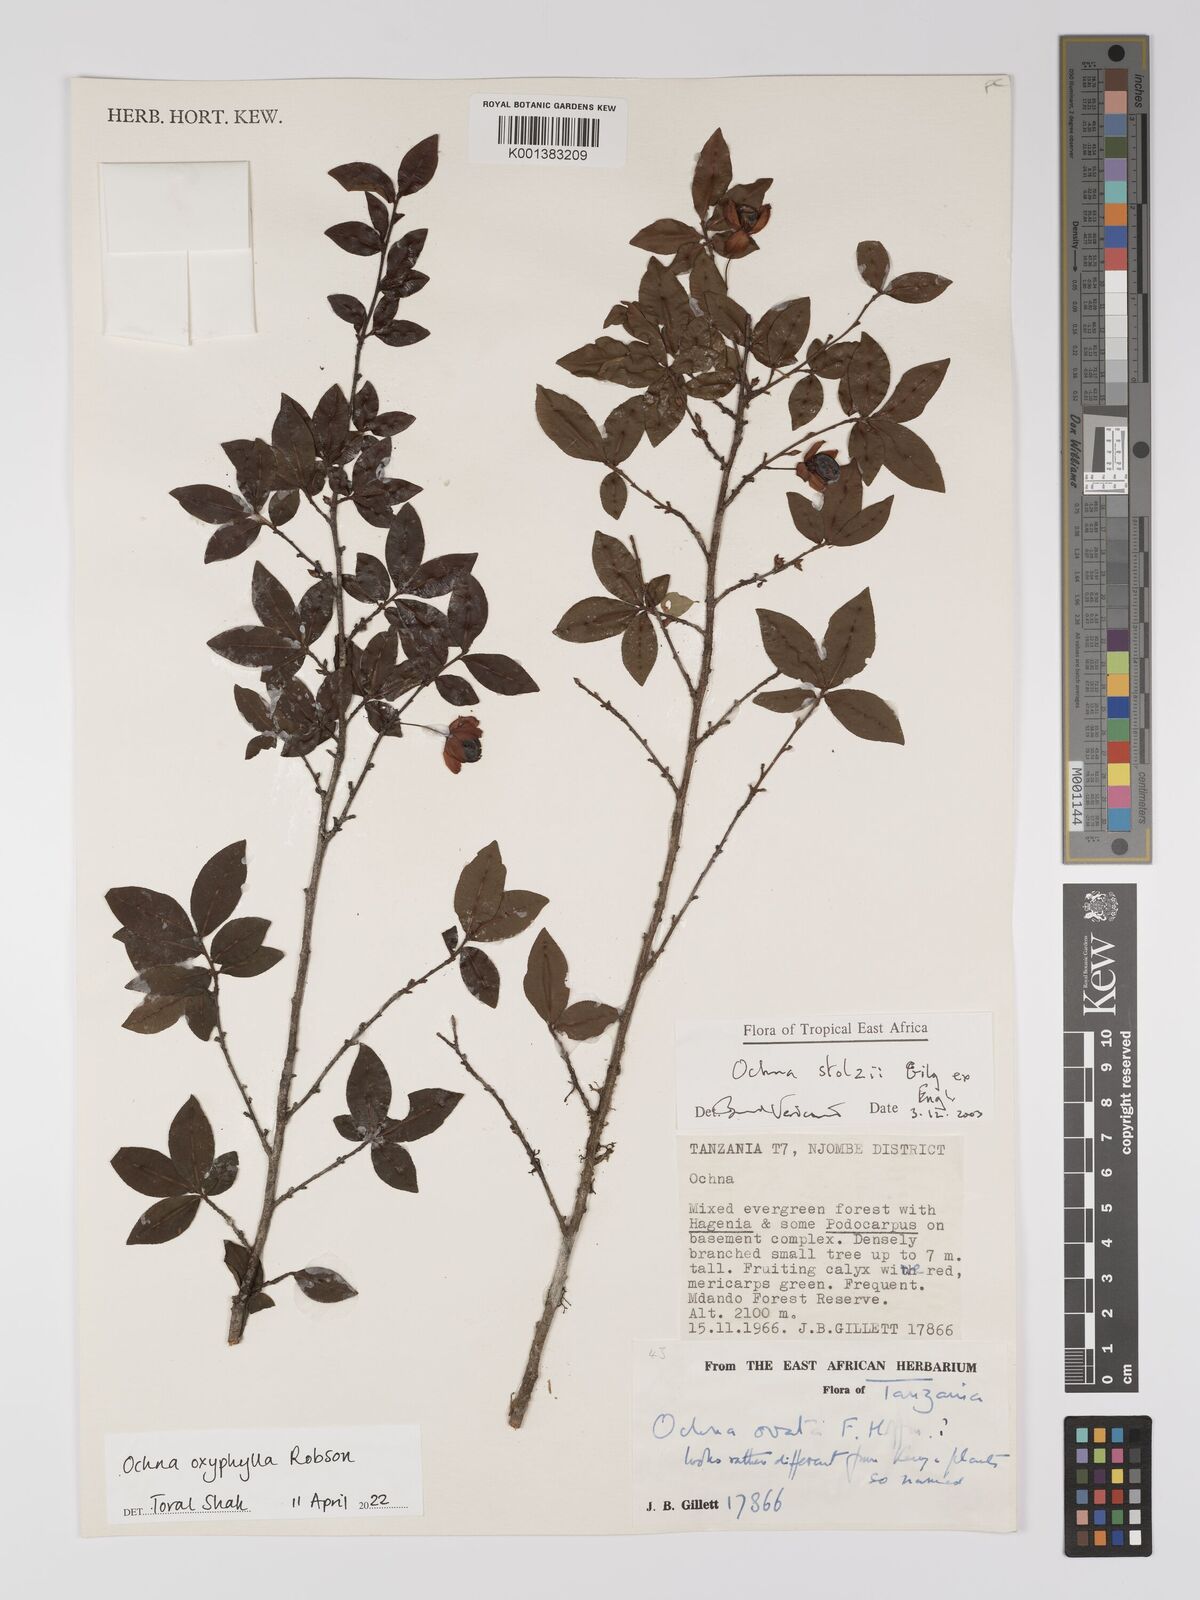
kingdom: Plantae
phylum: Tracheophyta
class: Magnoliopsida
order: Malpighiales
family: Ochnaceae
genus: Ochna
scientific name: Ochna oxyphylla
